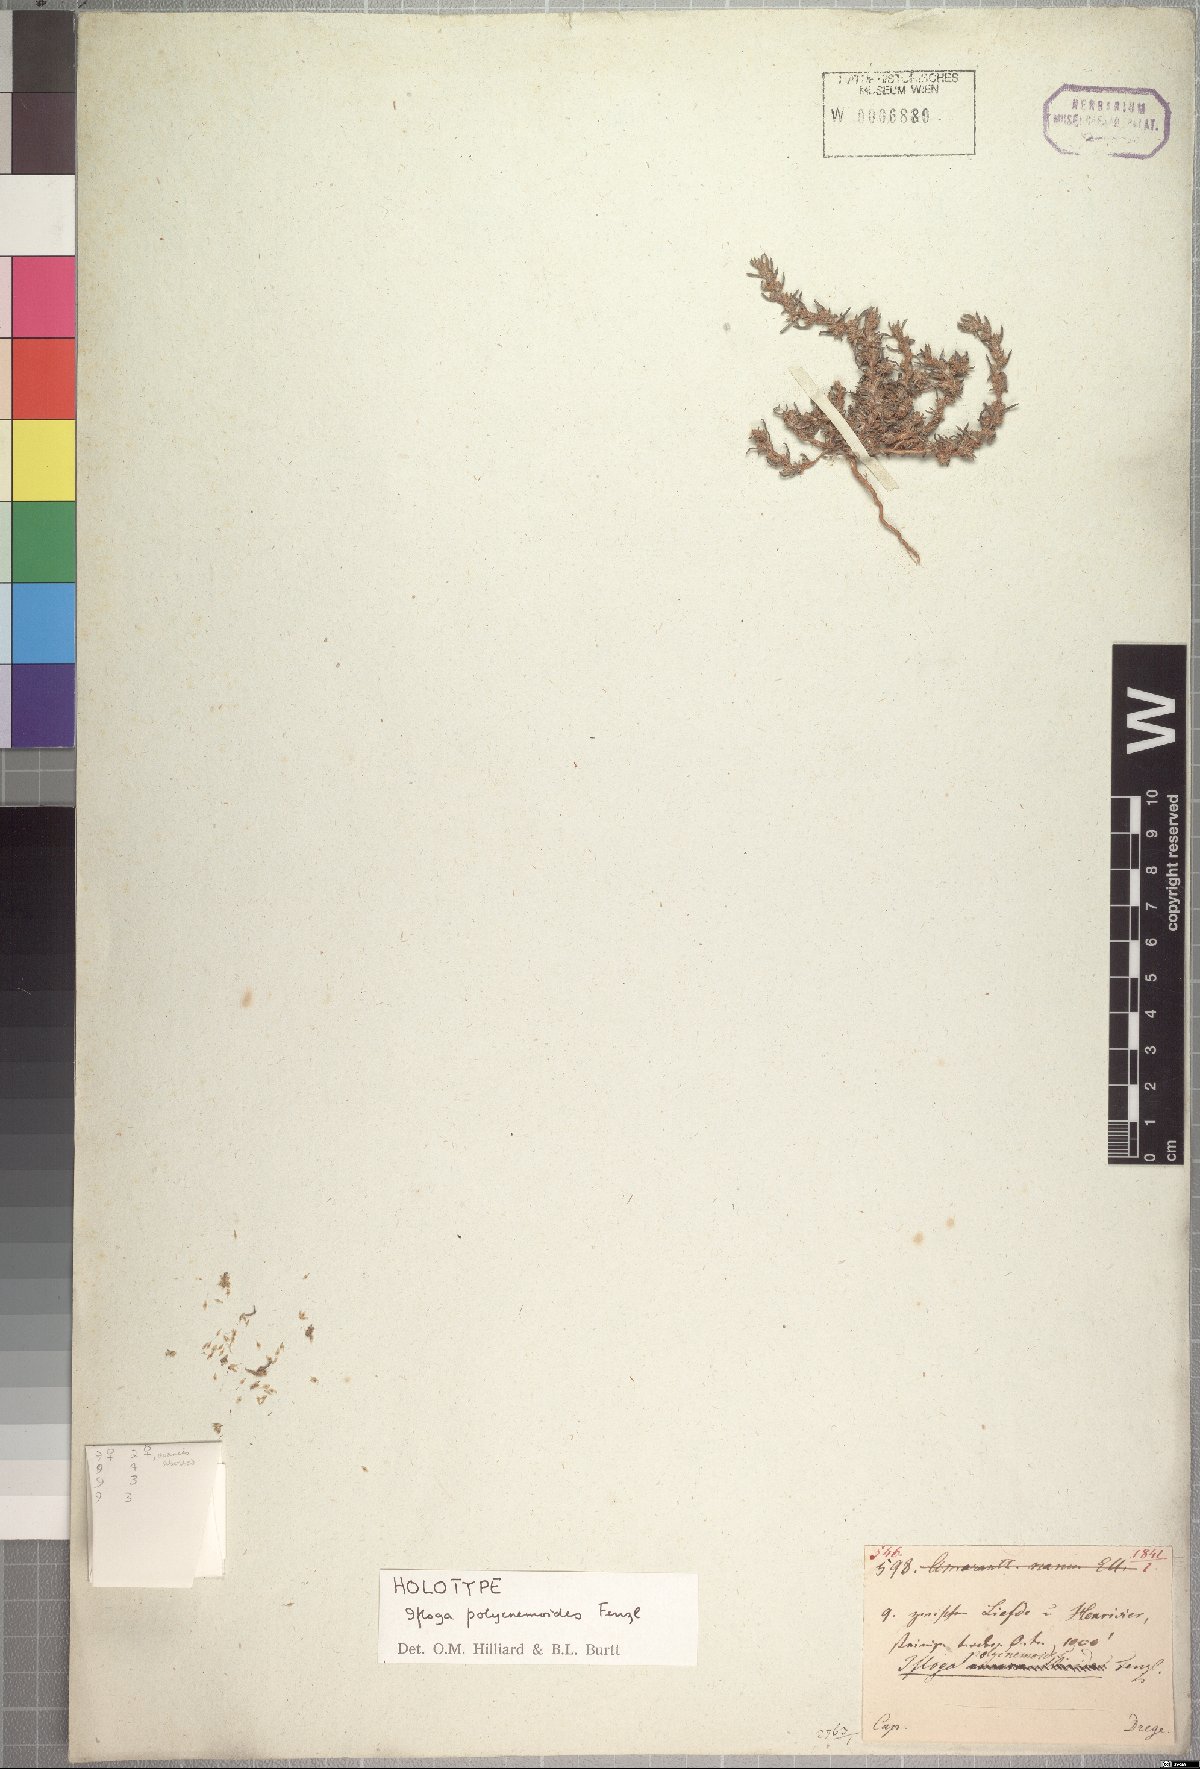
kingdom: Plantae
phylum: Tracheophyta
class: Magnoliopsida
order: Asterales
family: Asteraceae
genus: Ifloga
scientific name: Ifloga polycnemoides
